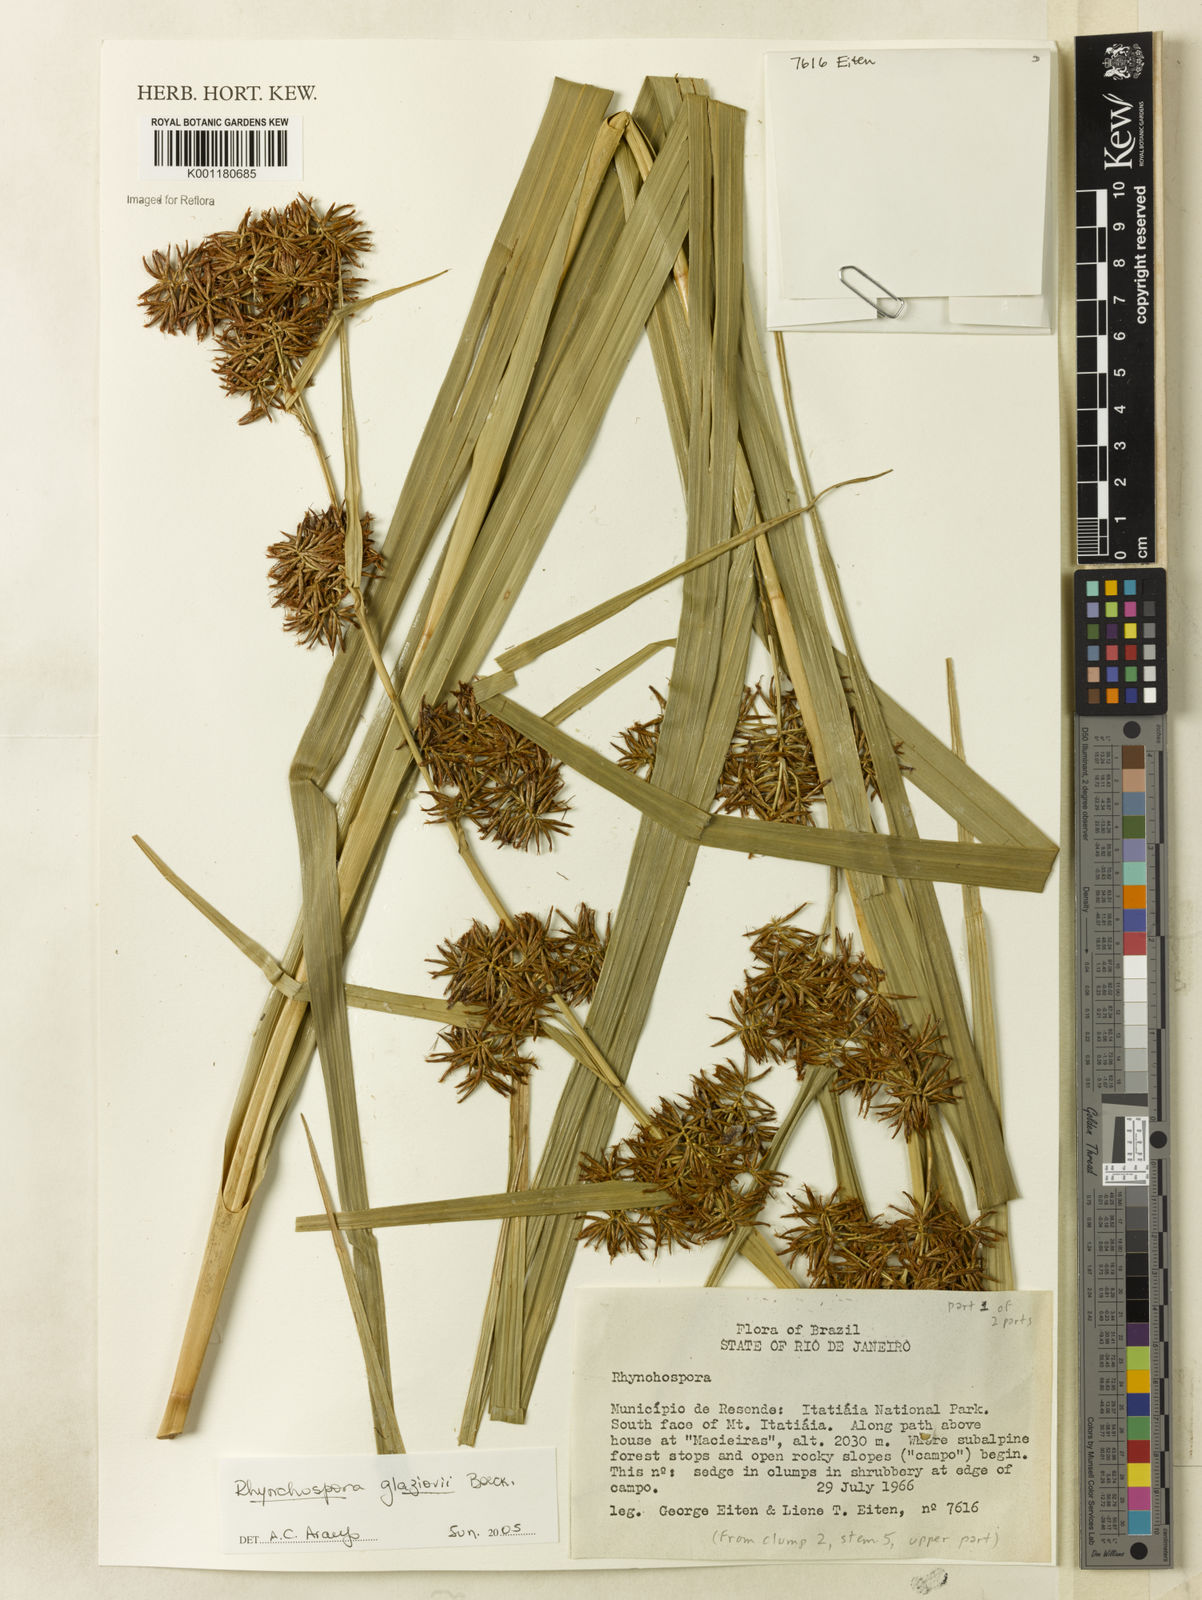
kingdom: Plantae
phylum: Tracheophyta
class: Liliopsida
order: Poales
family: Cyperaceae
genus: Rhynchospora
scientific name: Rhynchospora glaziovii
